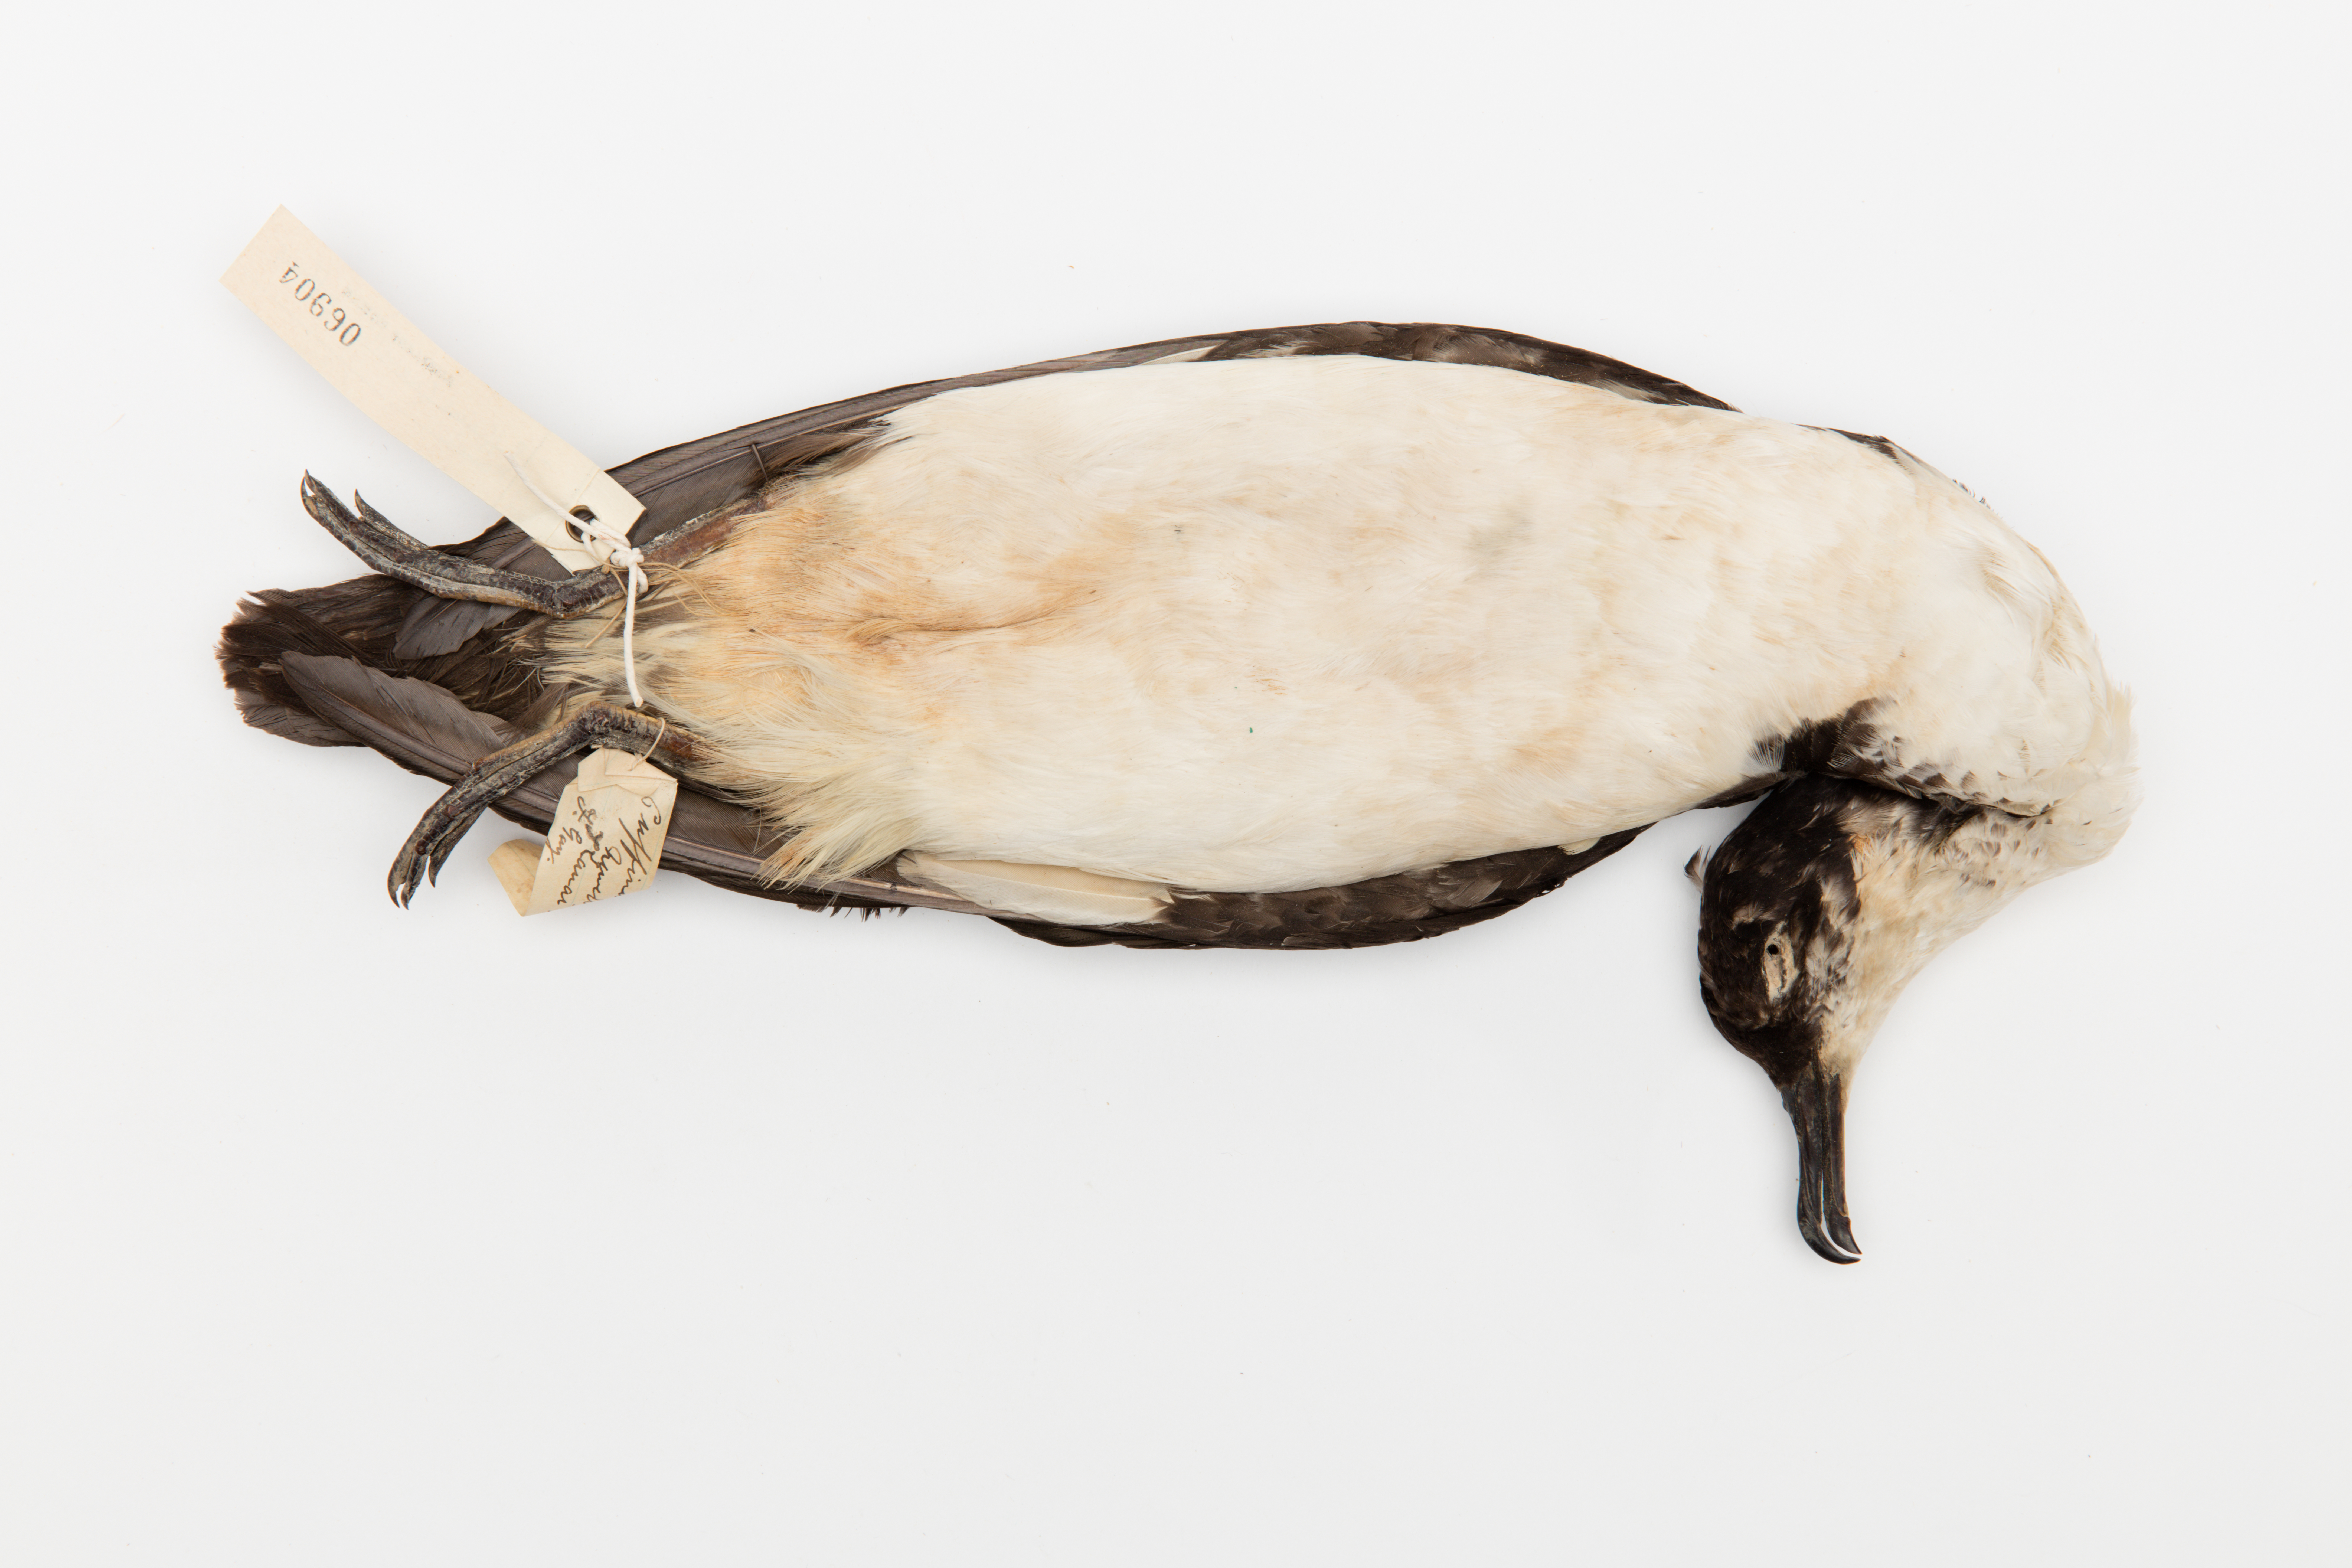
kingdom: Animalia
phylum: Chordata
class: Aves
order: Procellariiformes
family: Procellariidae
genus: Puffinus
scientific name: Puffinus puffinus
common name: Manx shearwater
